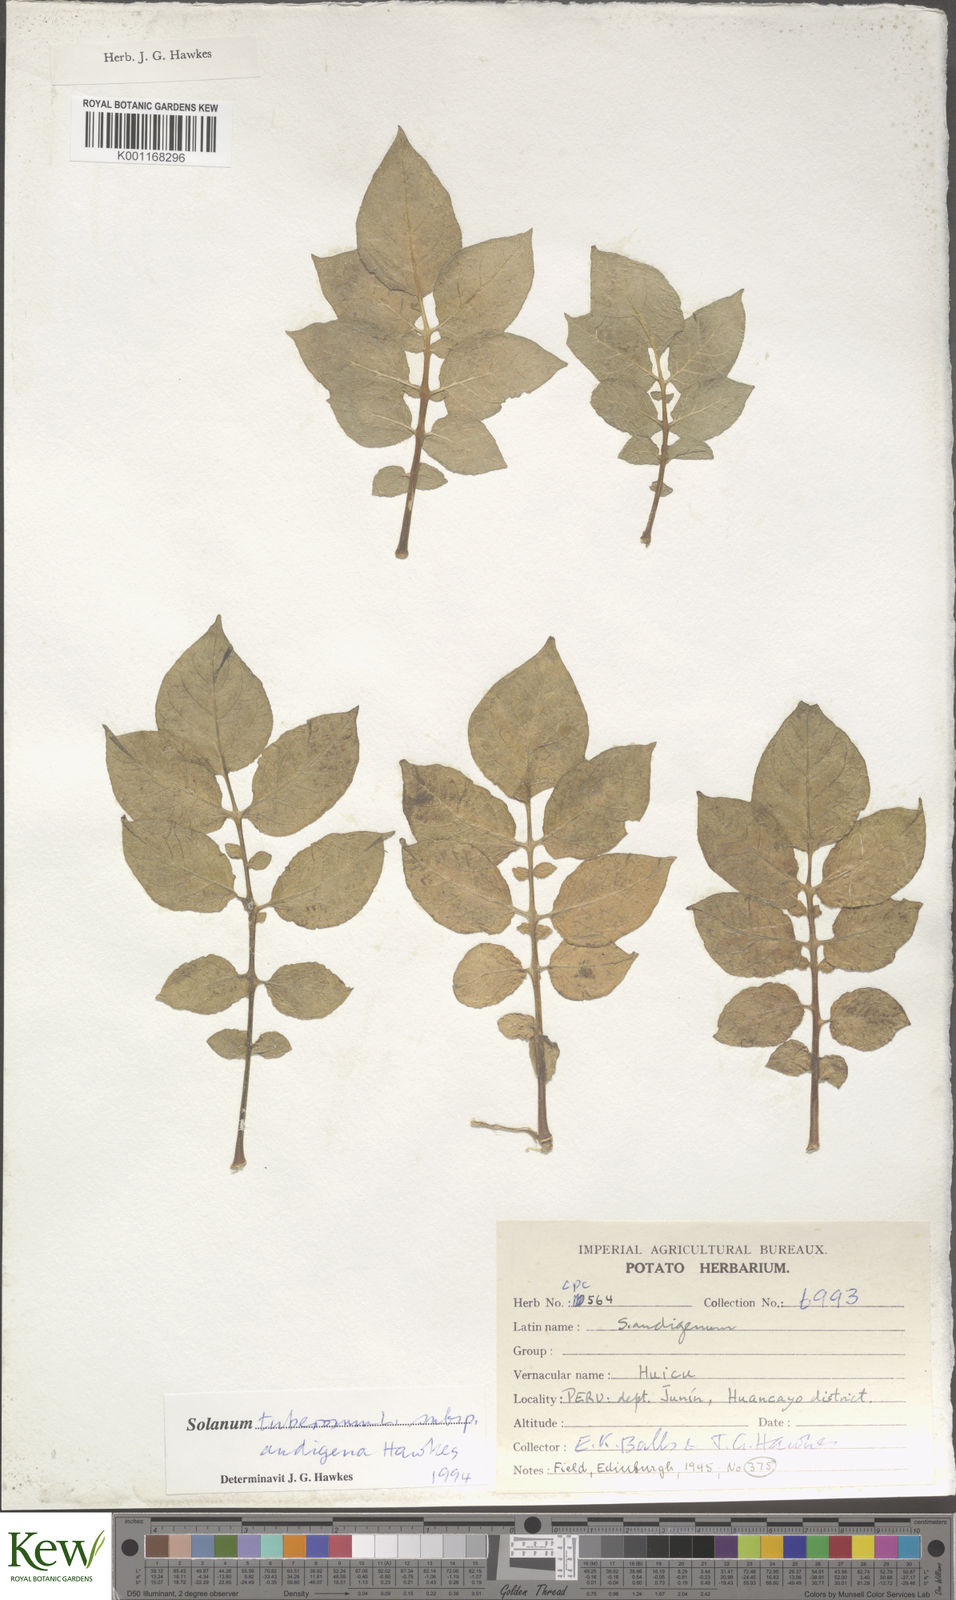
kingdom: Plantae
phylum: Tracheophyta
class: Magnoliopsida
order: Solanales
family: Solanaceae
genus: Solanum
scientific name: Solanum tuberosum
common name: Potato
